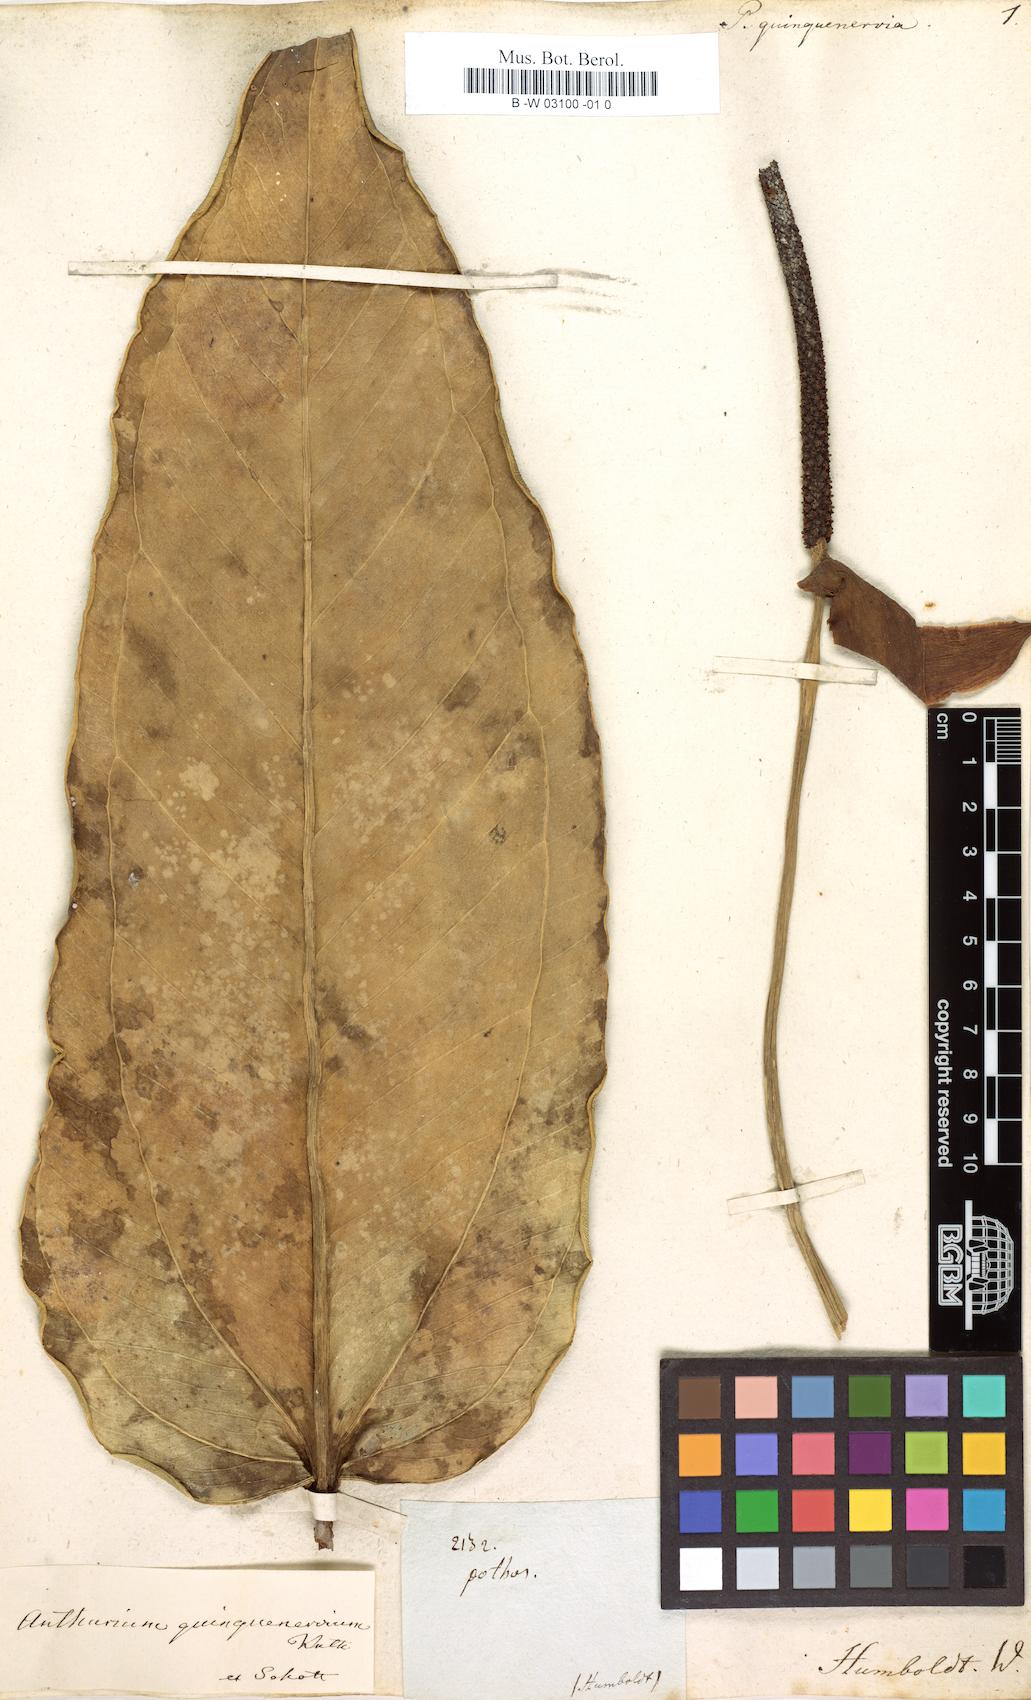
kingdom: Plantae
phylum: Tracheophyta
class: Liliopsida
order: Alismatales
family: Araceae
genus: Anthurium
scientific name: Anthurium quinquenervium
